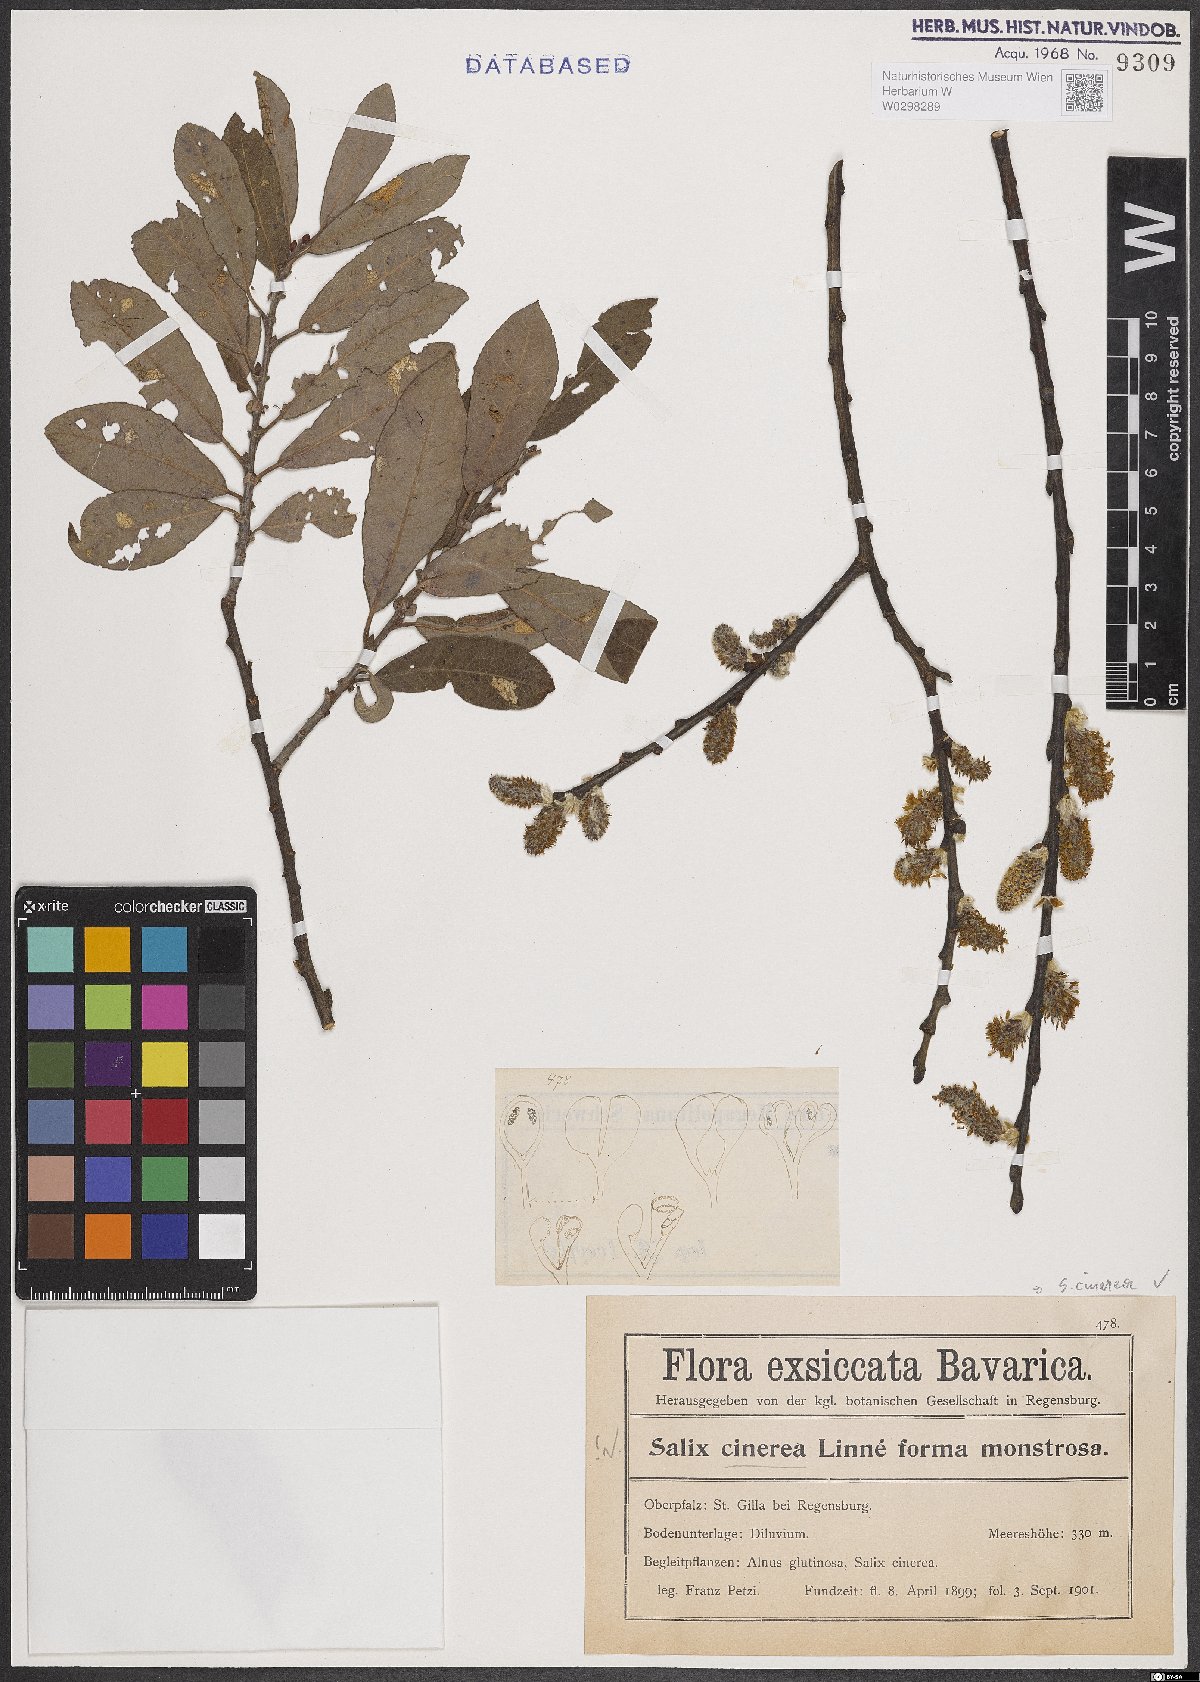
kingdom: Plantae
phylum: Tracheophyta
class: Magnoliopsida
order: Malpighiales
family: Salicaceae
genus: Salix
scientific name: Salix cinerea
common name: Common sallow
